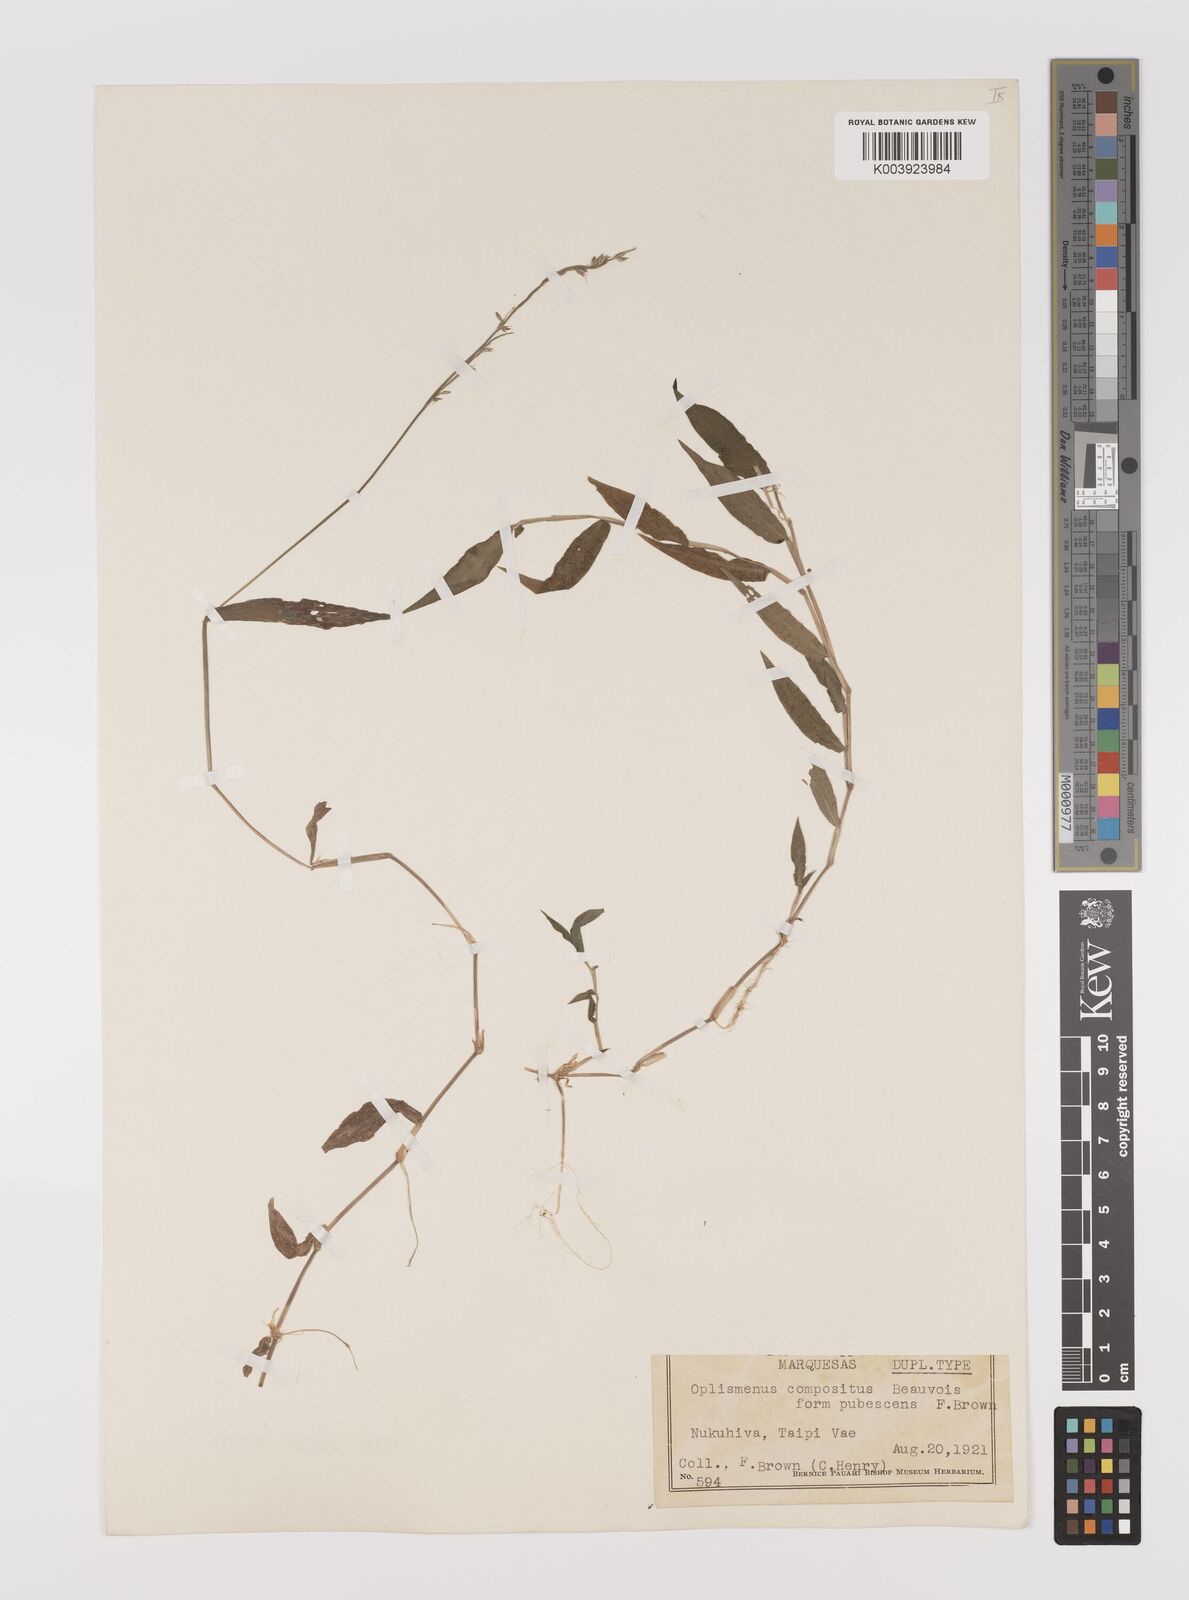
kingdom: Plantae
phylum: Tracheophyta
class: Liliopsida
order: Poales
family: Poaceae
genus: Oplismenus
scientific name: Oplismenus compositus
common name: Running mountain grass
